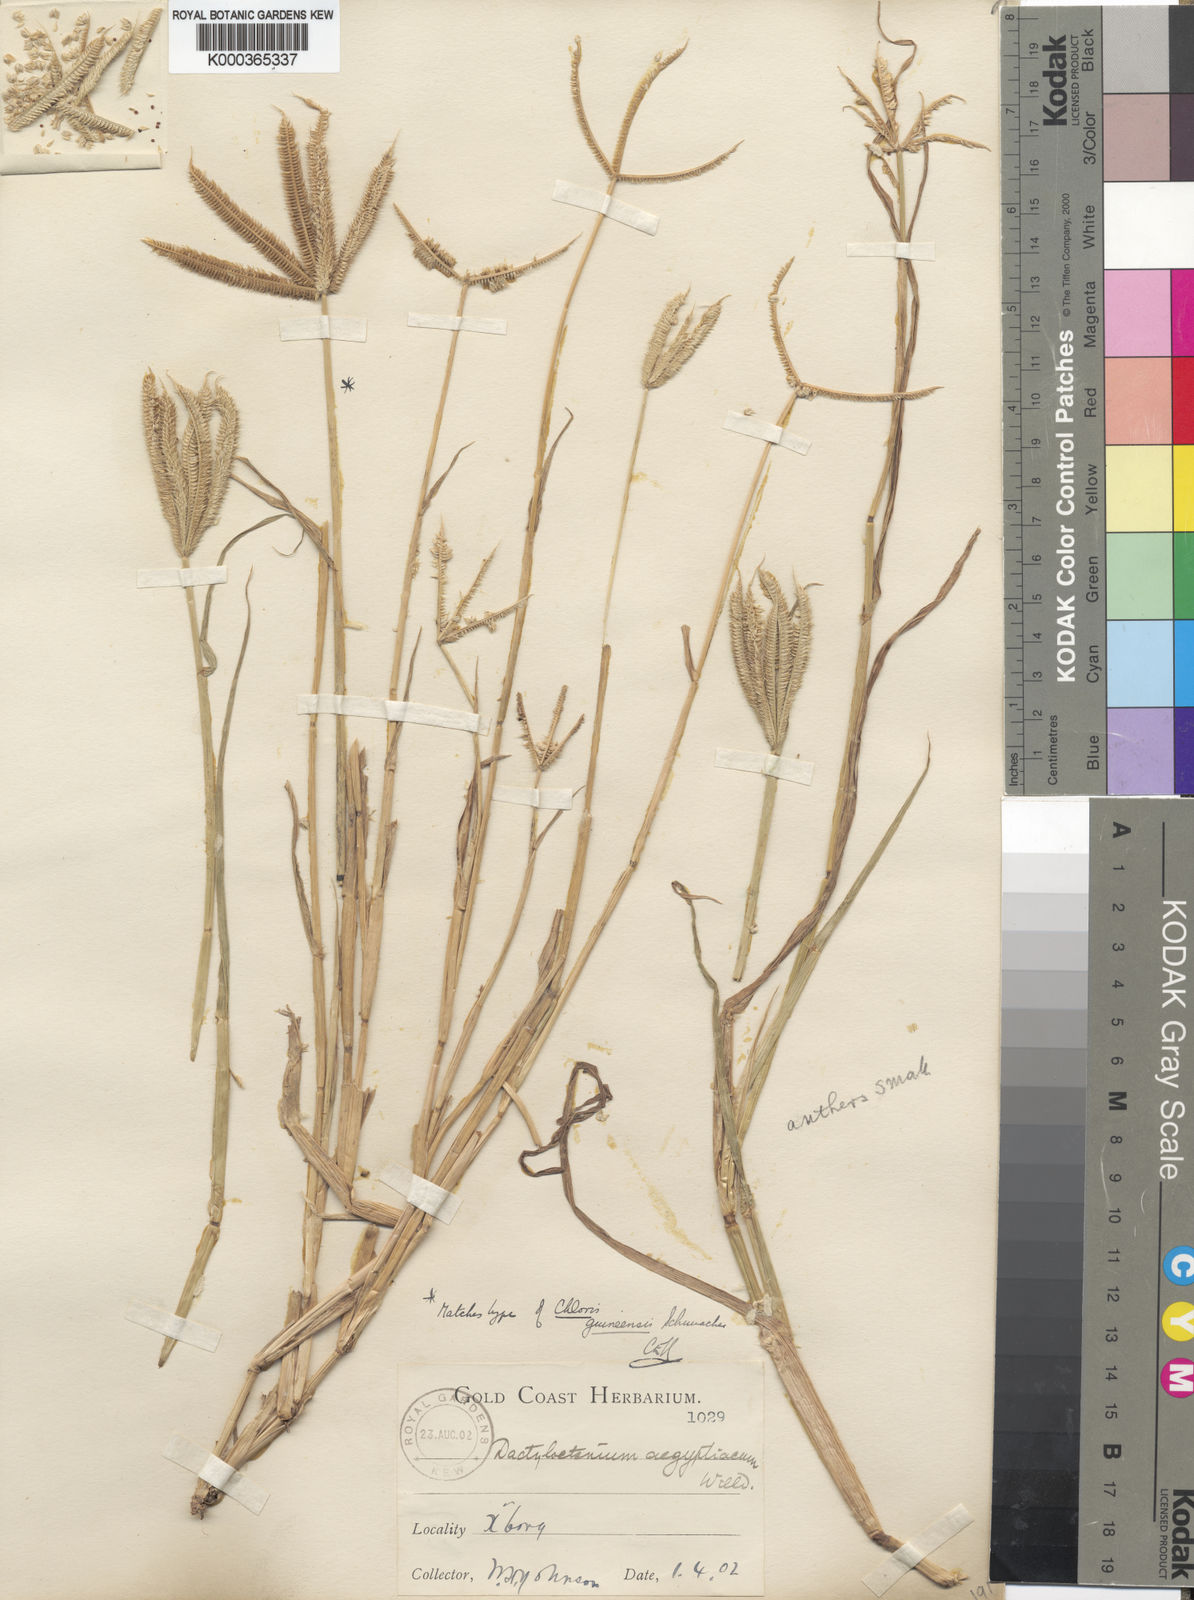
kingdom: Plantae
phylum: Tracheophyta
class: Liliopsida
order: Poales
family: Poaceae
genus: Dactyloctenium
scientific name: Dactyloctenium
